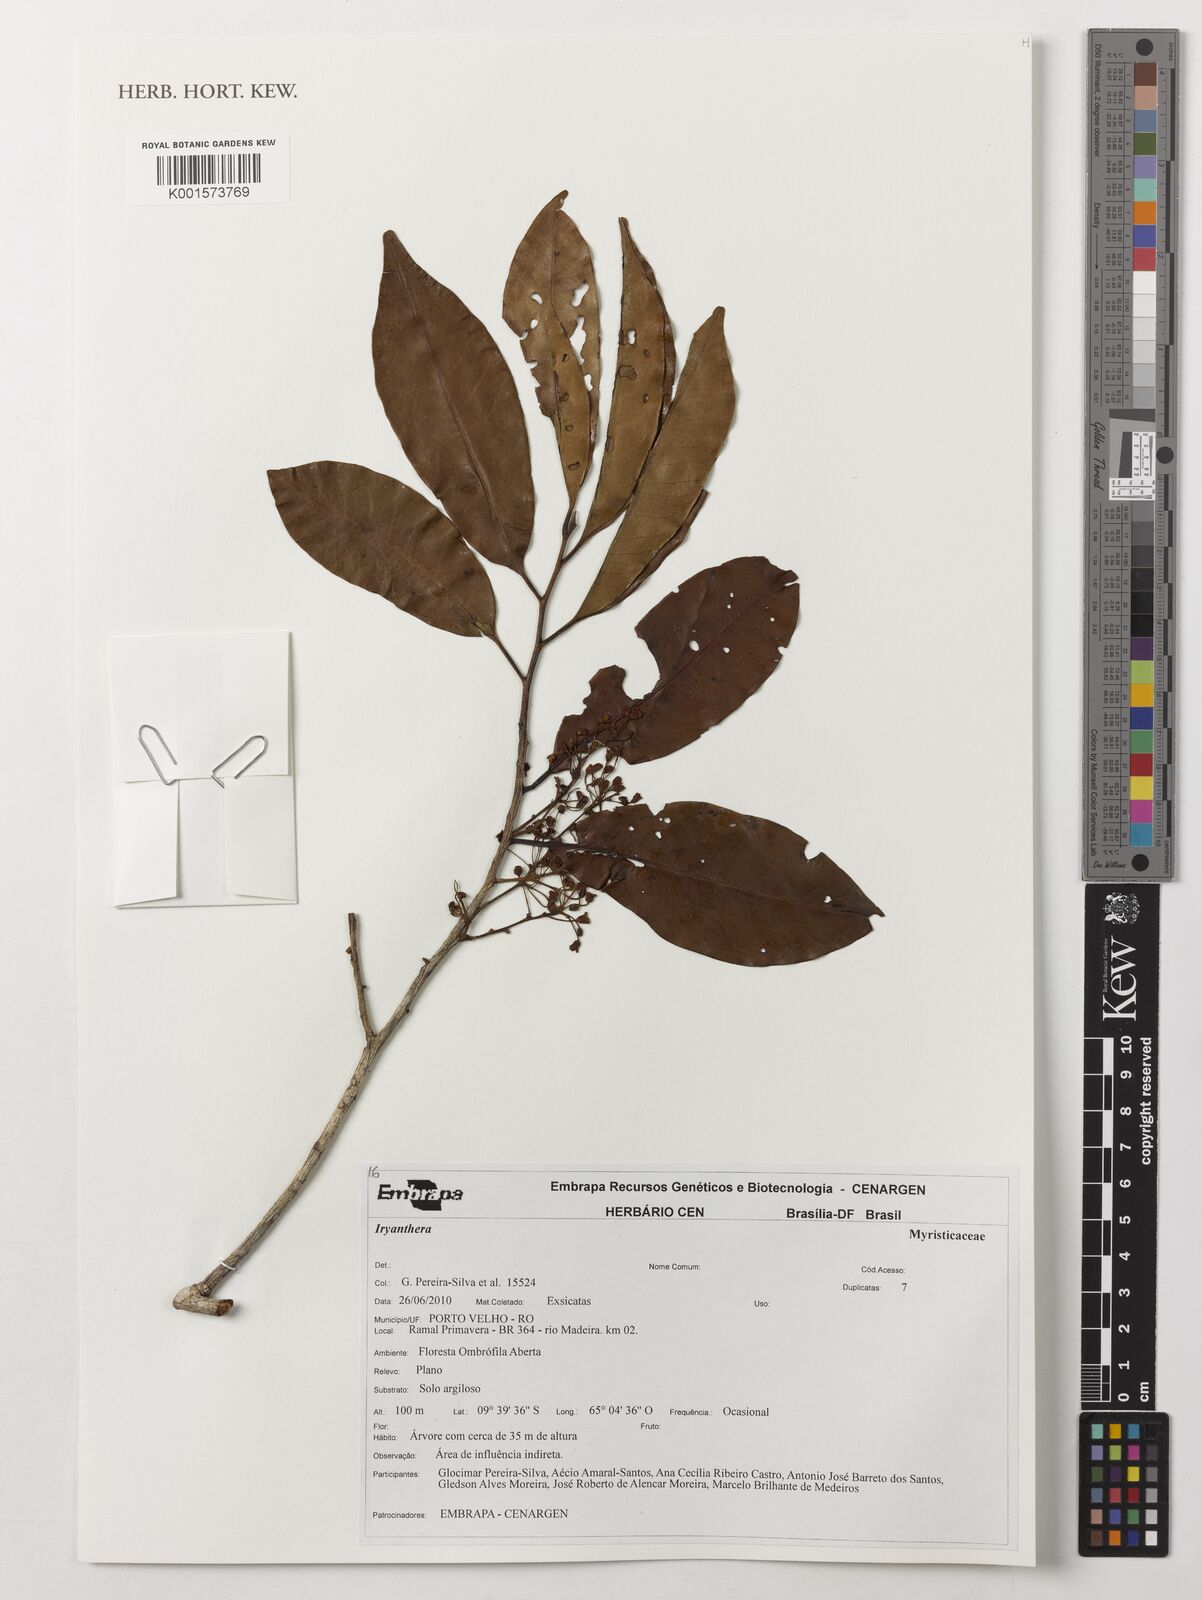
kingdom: Plantae
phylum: Tracheophyta
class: Magnoliopsida
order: Magnoliales
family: Myristicaceae
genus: Iryanthera
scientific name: Iryanthera
